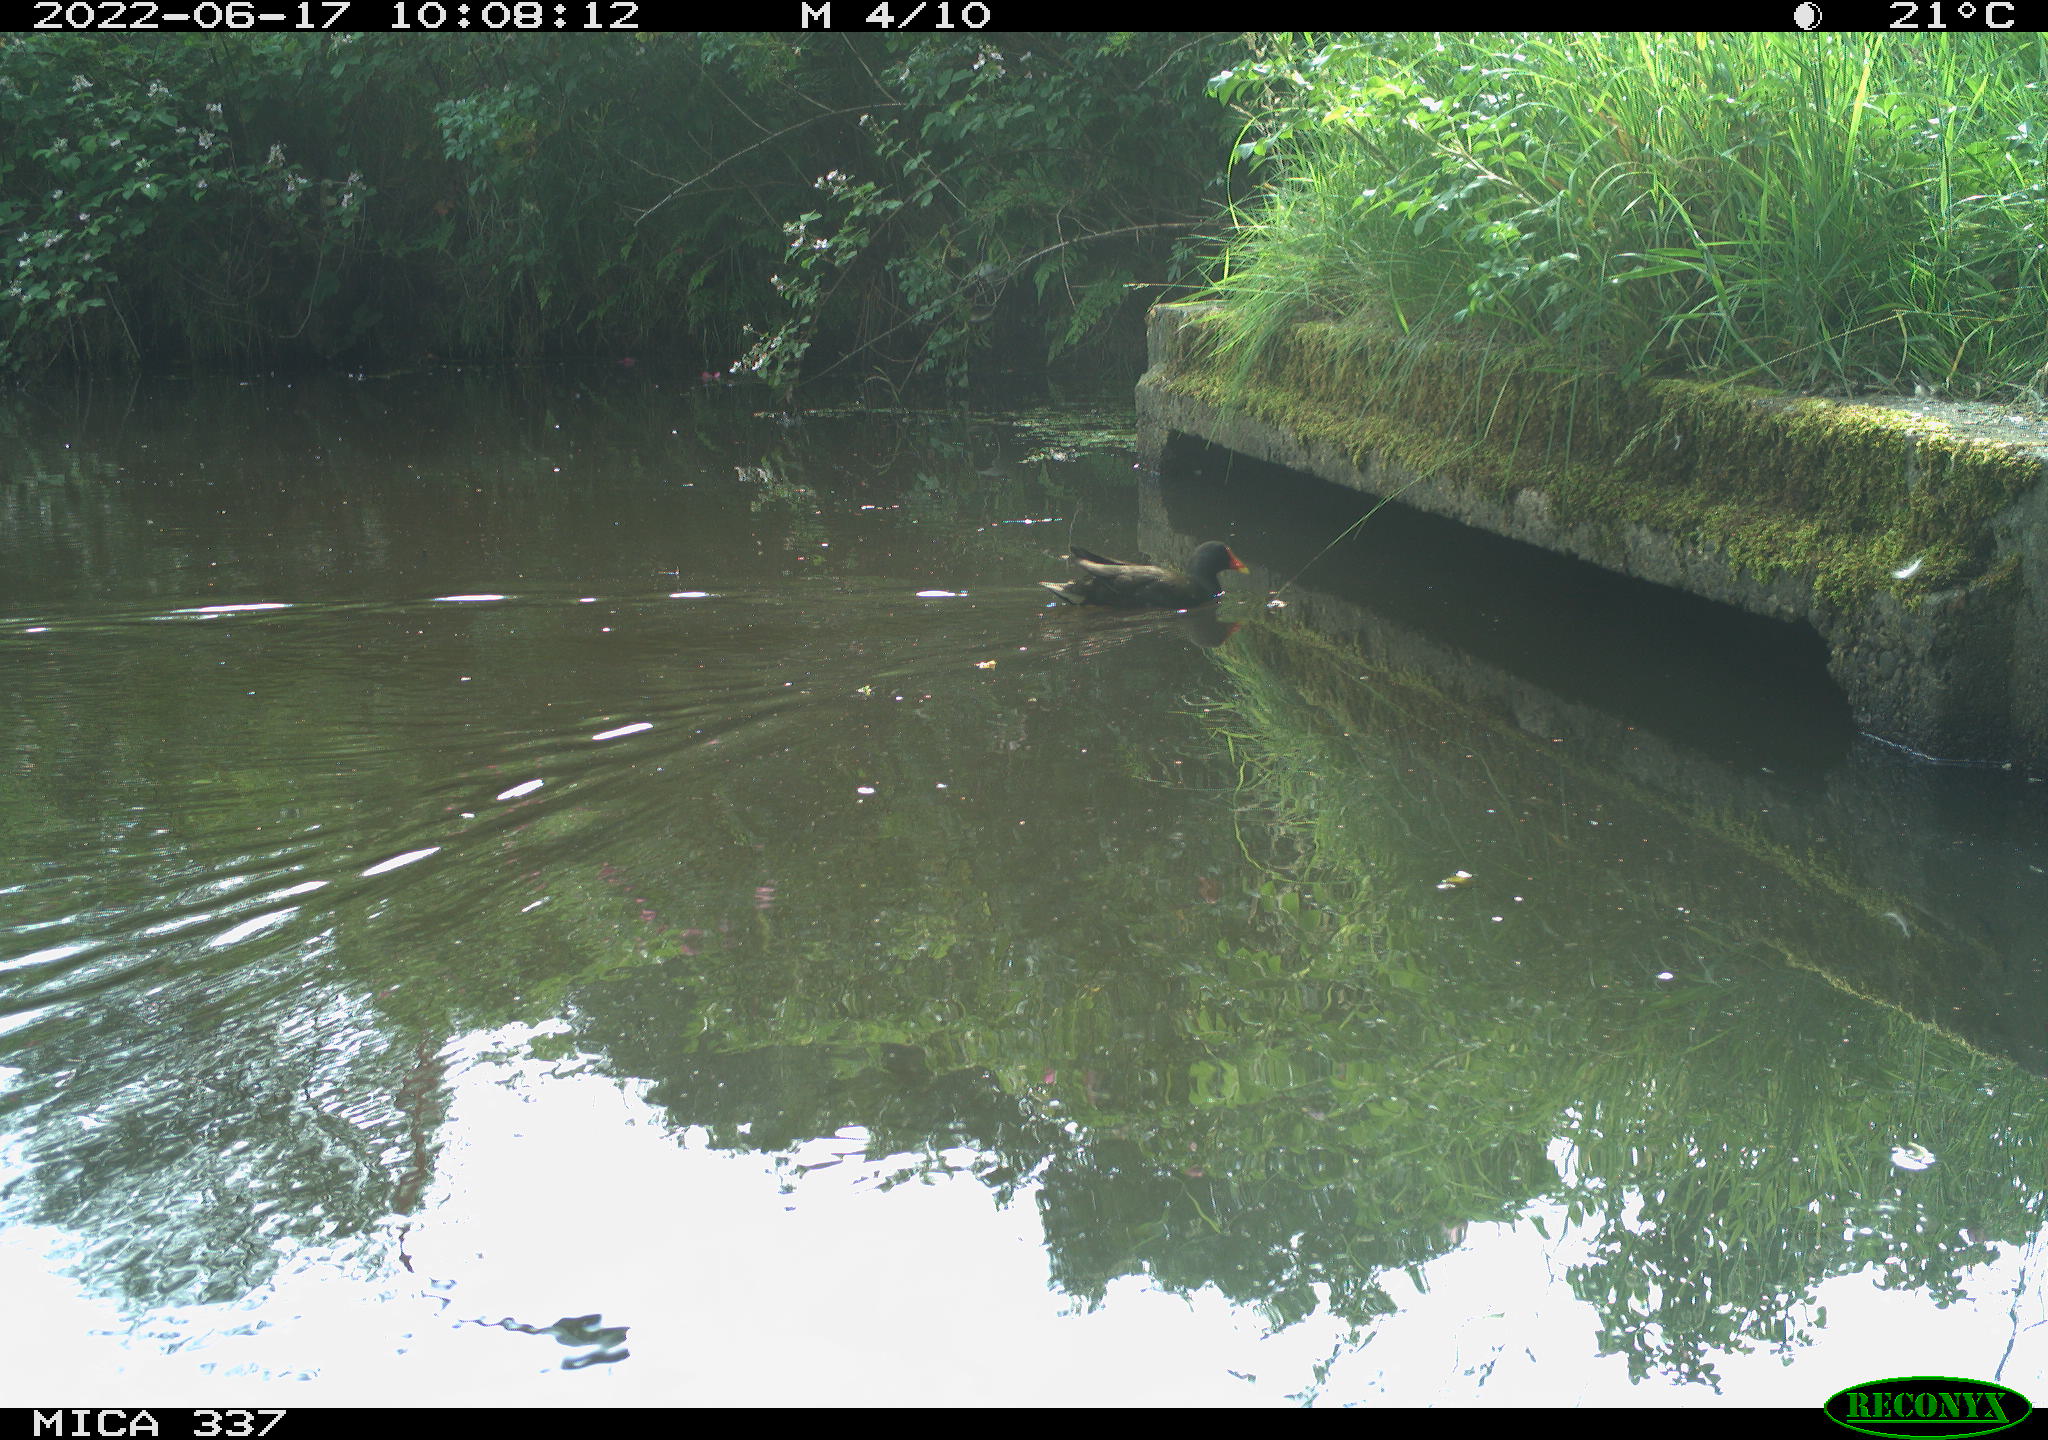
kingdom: Animalia
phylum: Chordata
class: Aves
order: Gruiformes
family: Rallidae
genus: Gallinula
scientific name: Gallinula chloropus
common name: Common moorhen
